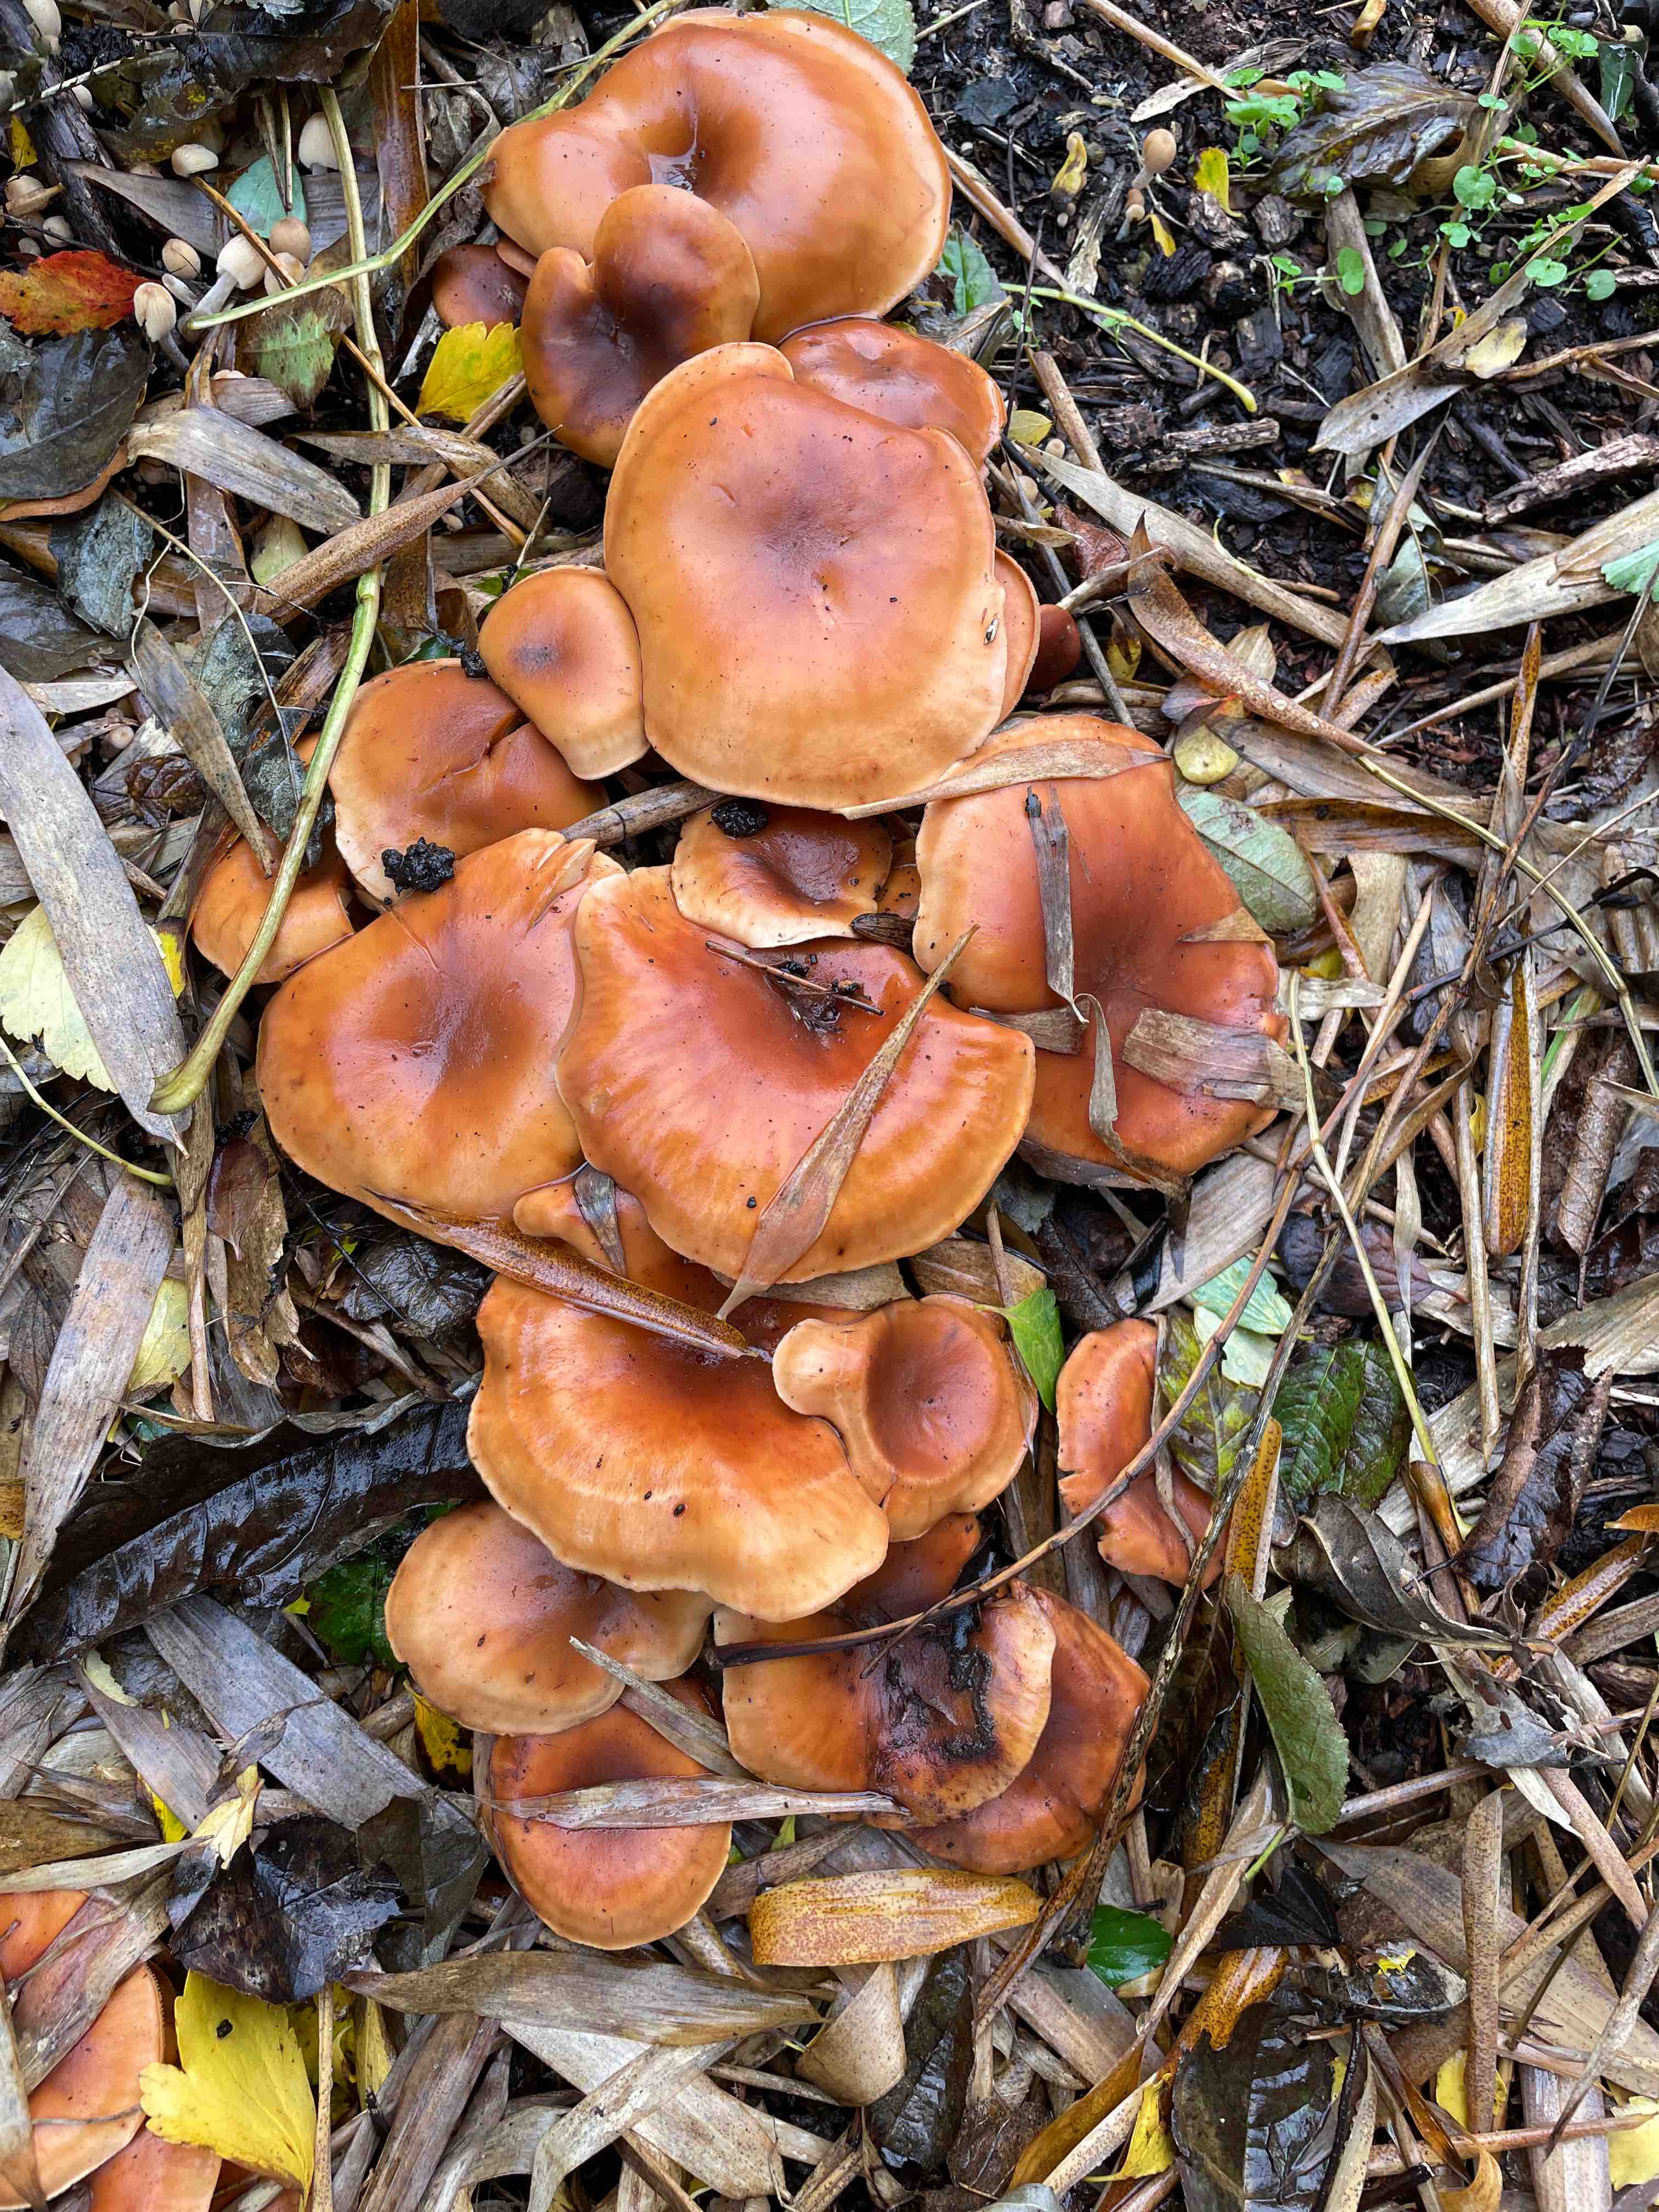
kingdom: Fungi
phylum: Basidiomycota
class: Agaricomycetes
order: Agaricales
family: Tricholomataceae
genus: Paralepista
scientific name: Paralepista flaccida
